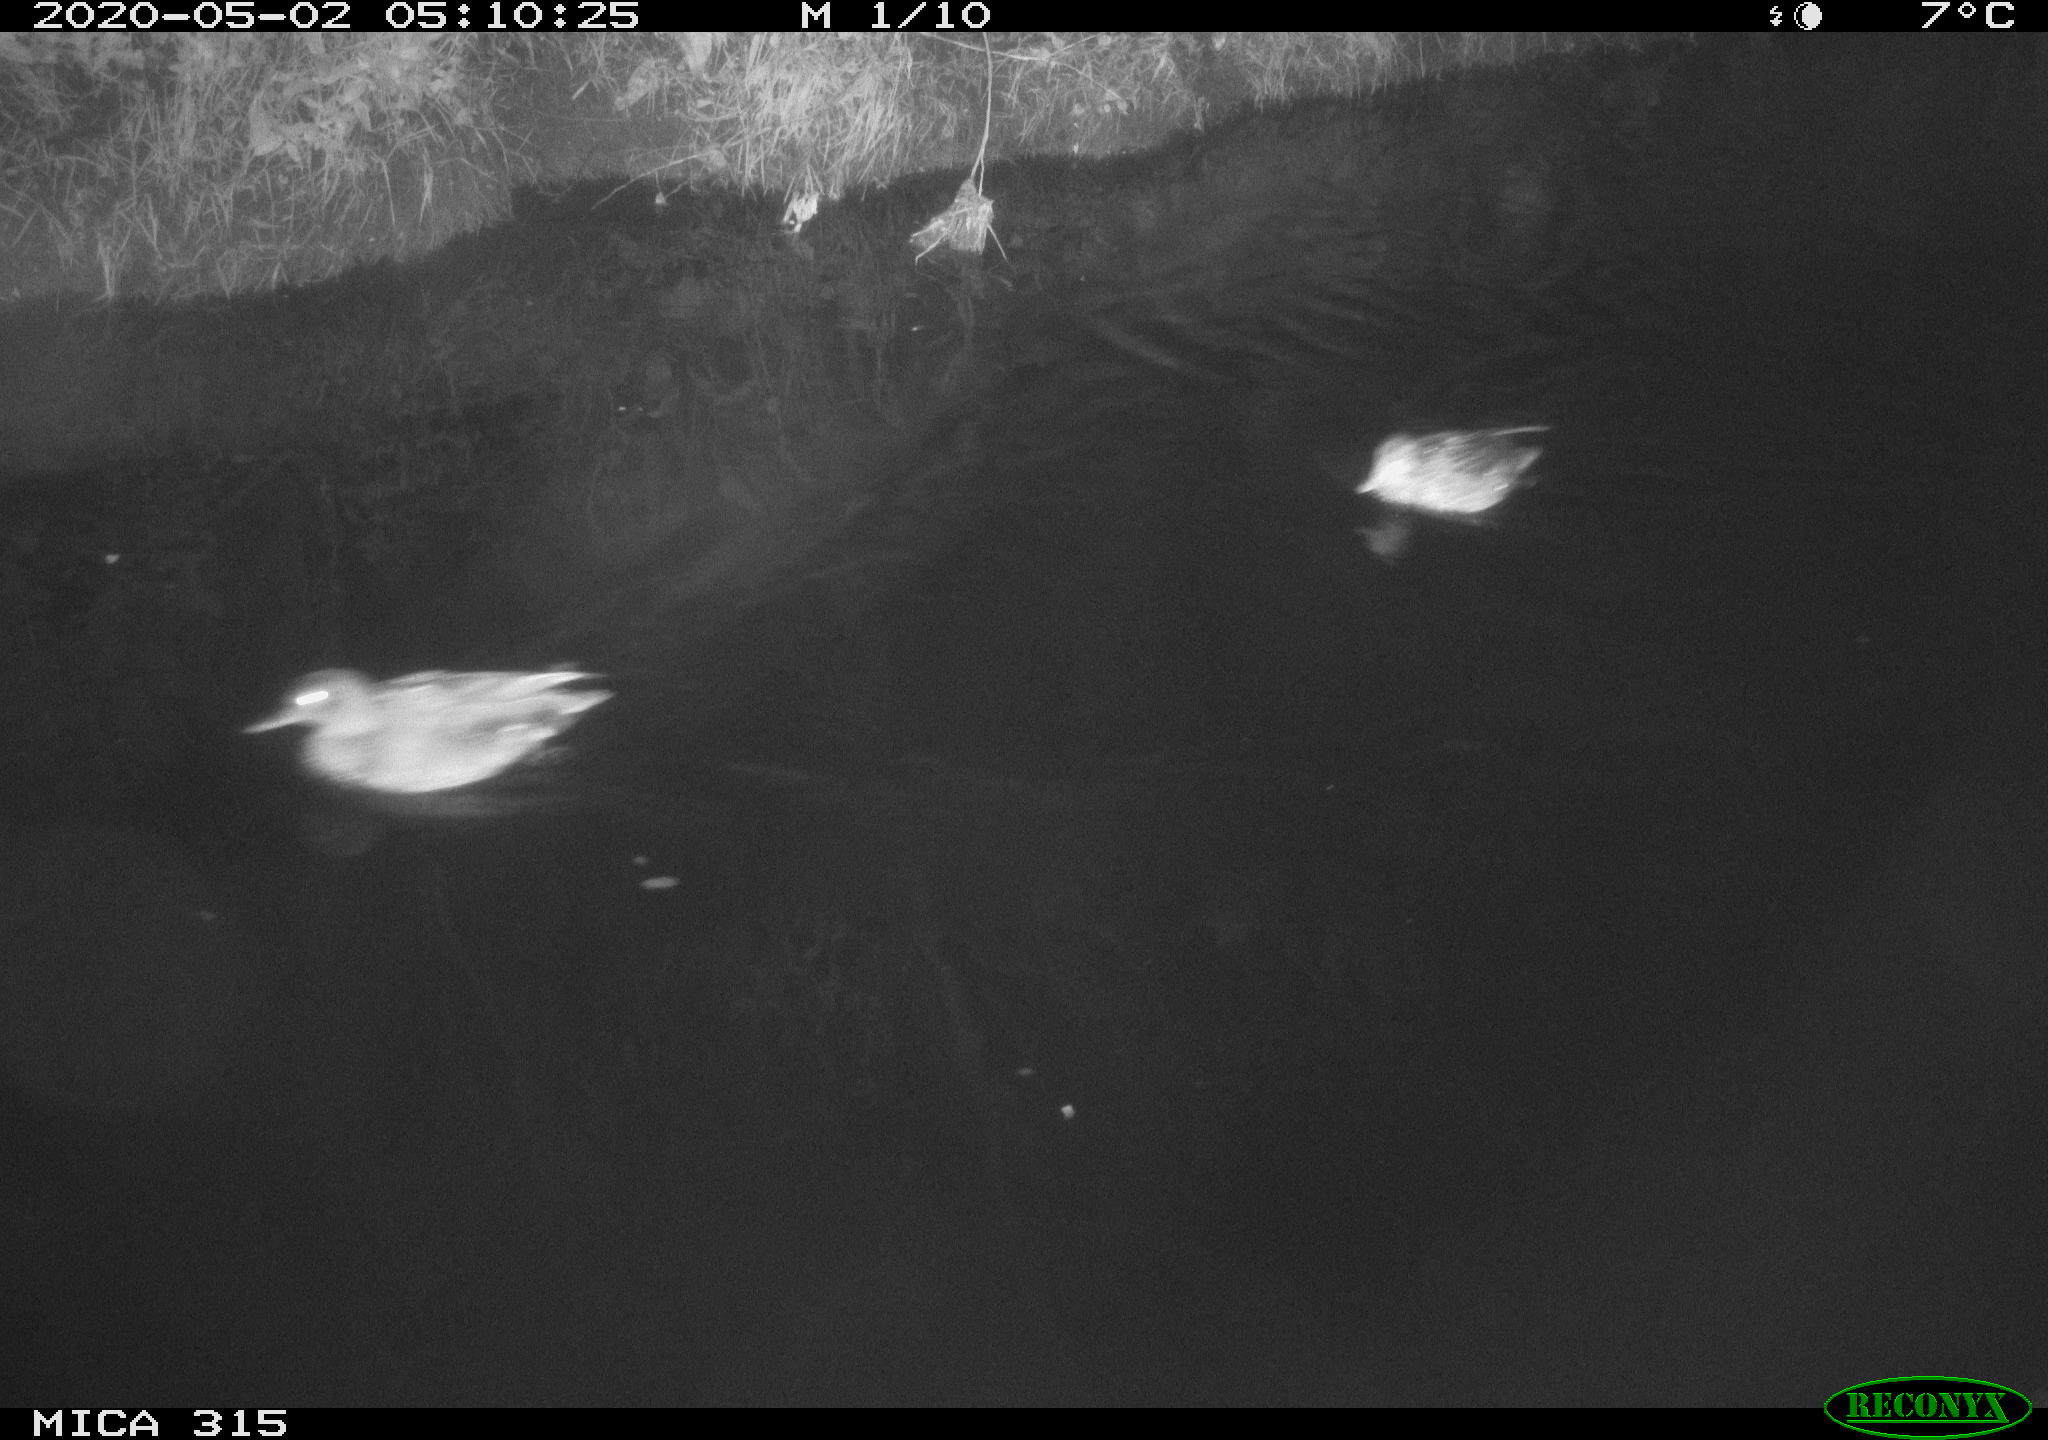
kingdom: Animalia
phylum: Chordata
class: Aves
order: Anseriformes
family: Anatidae
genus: Anas
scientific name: Anas platyrhynchos
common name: Mallard
